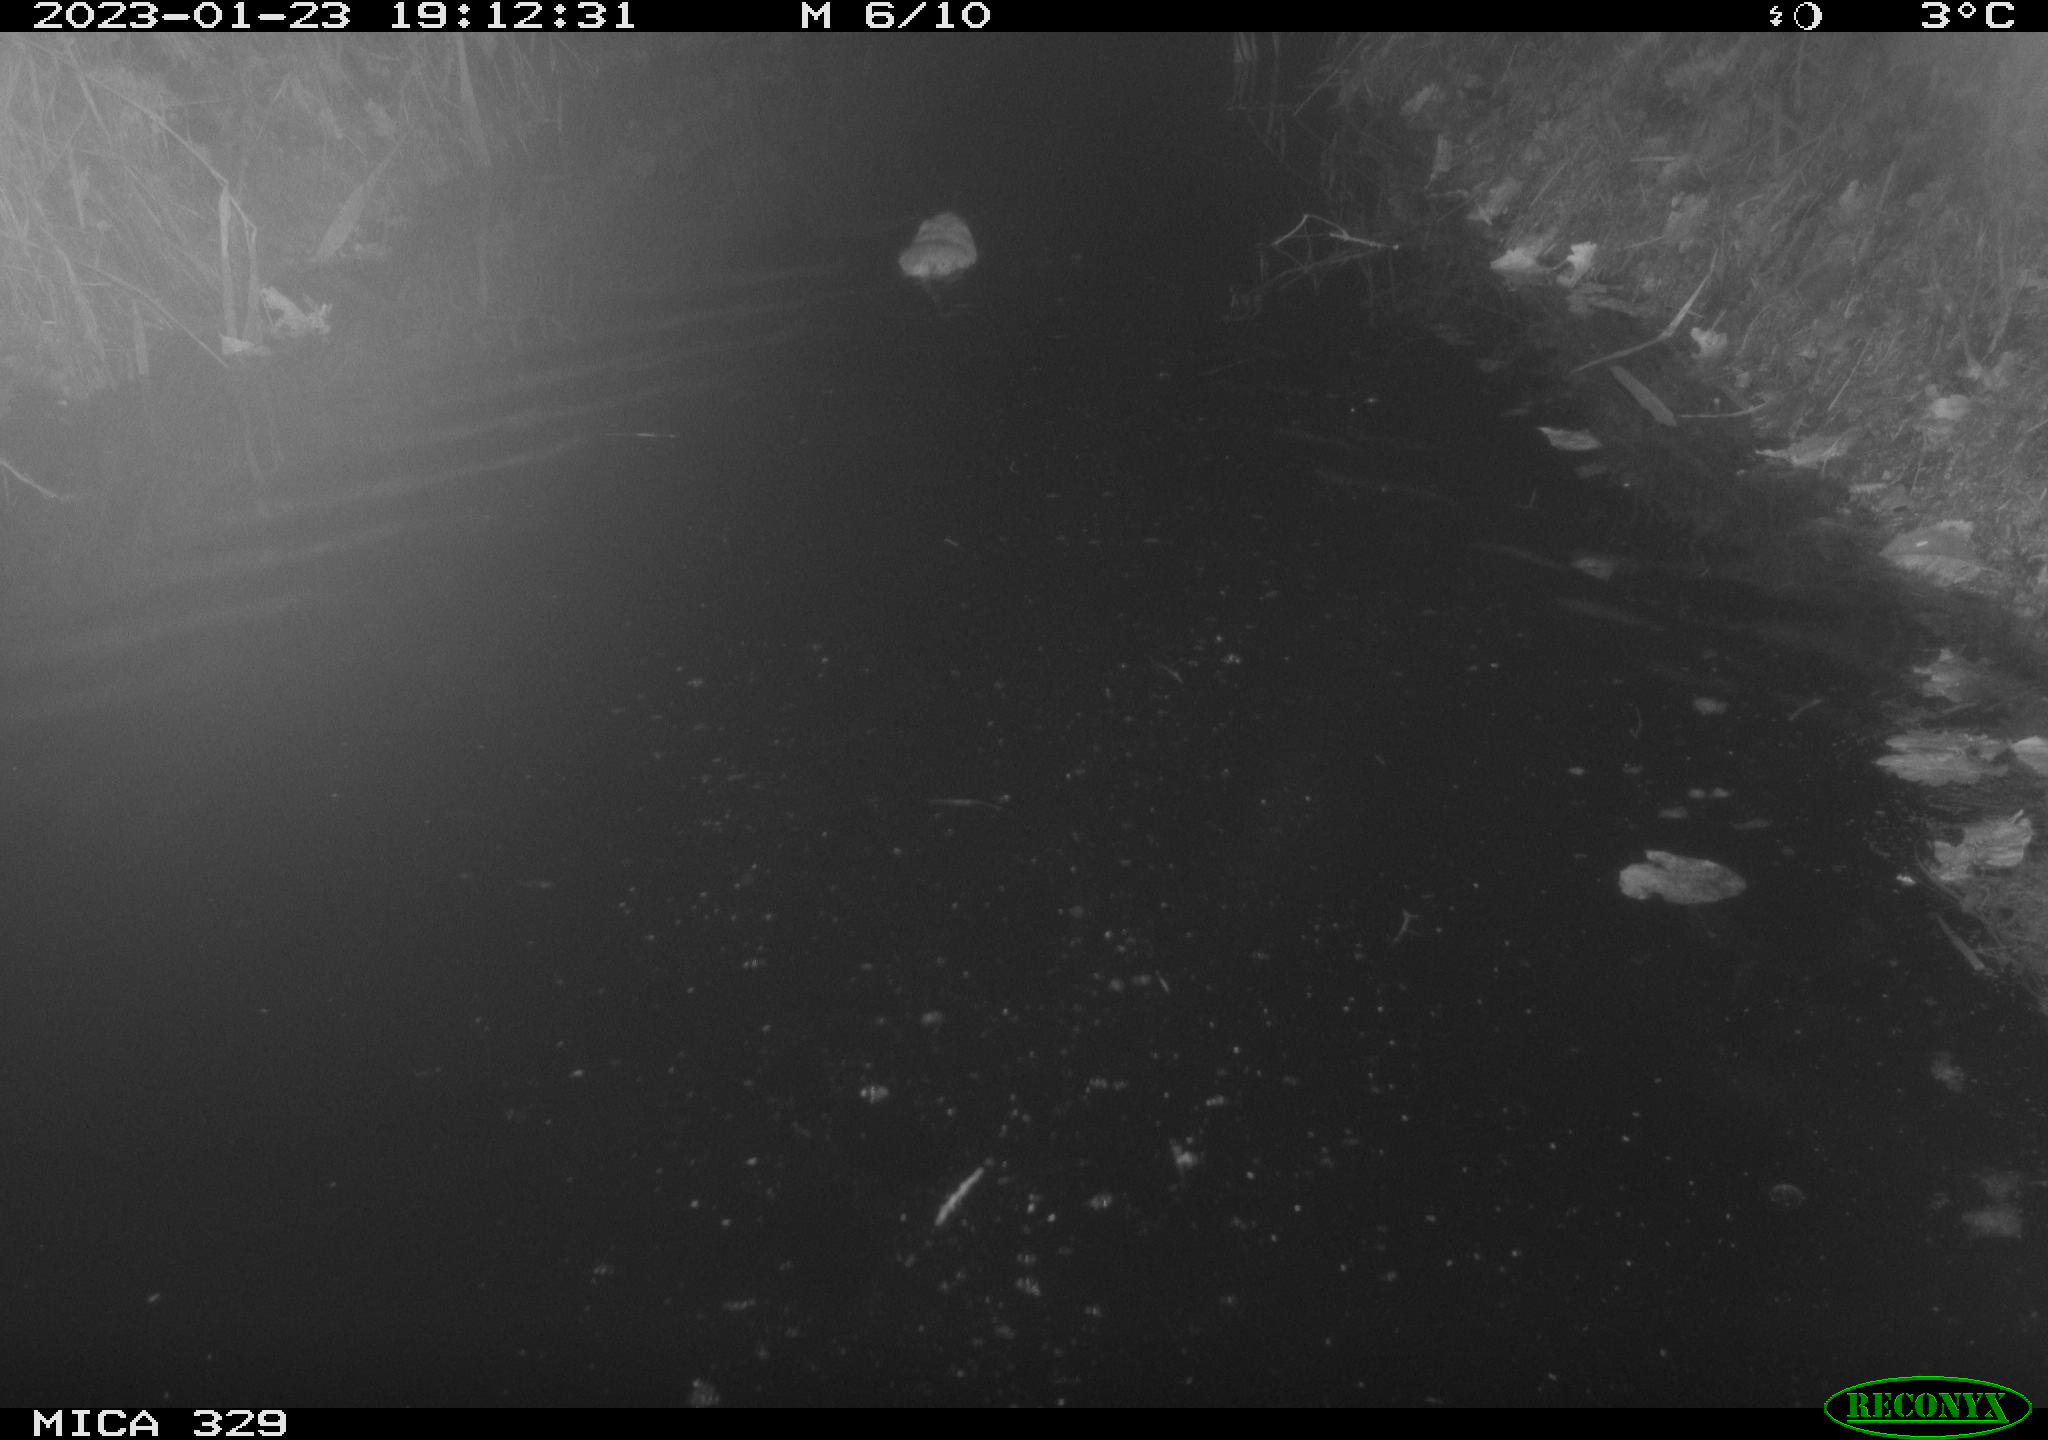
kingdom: Animalia
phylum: Chordata
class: Mammalia
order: Rodentia
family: Cricetidae
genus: Ondatra
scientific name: Ondatra zibethicus
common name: Muskrat
